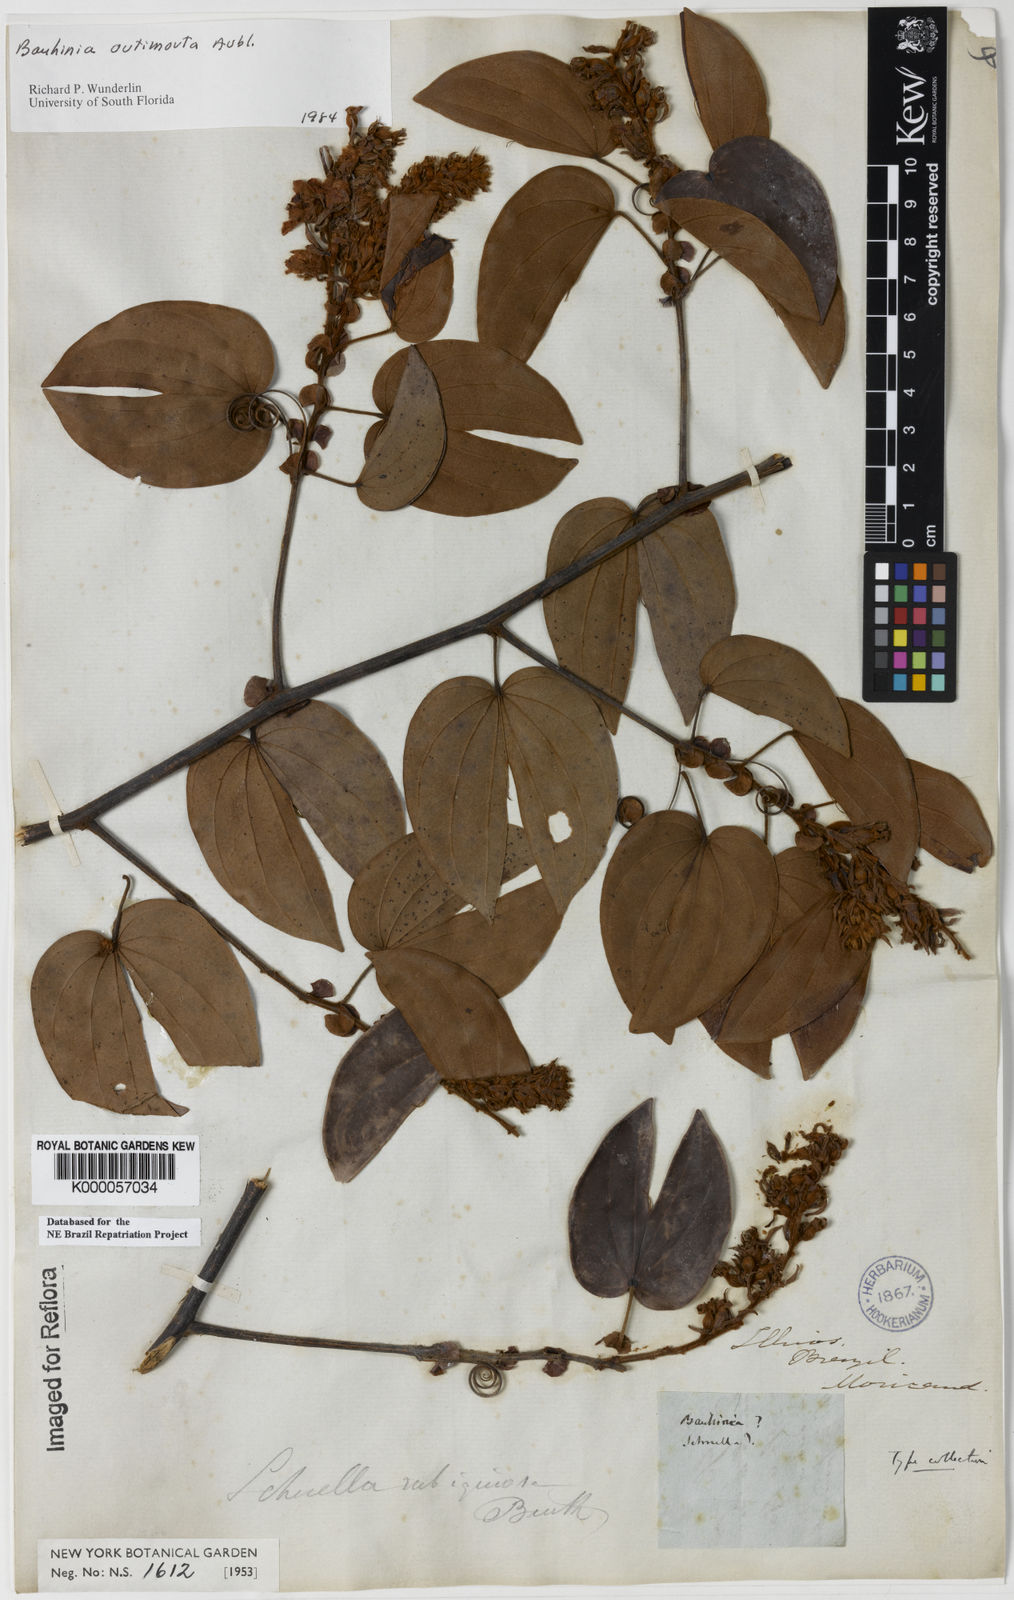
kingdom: Plantae
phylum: Tracheophyta
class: Magnoliopsida
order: Fabales
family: Fabaceae
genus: Schnella
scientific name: Schnella outimouta
